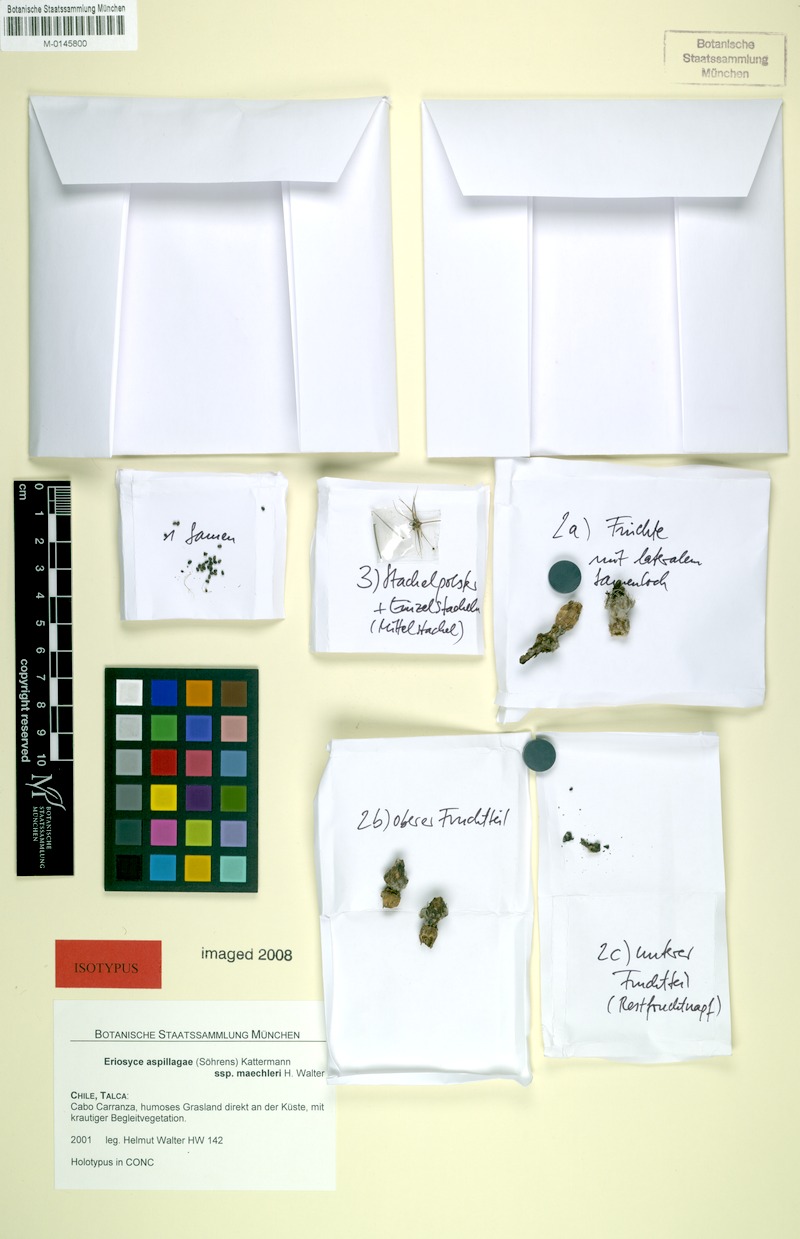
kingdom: Plantae
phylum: Tracheophyta
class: Magnoliopsida
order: Caryophyllales
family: Cactaceae
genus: Eriosyce
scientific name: Eriosyce aspillagae
